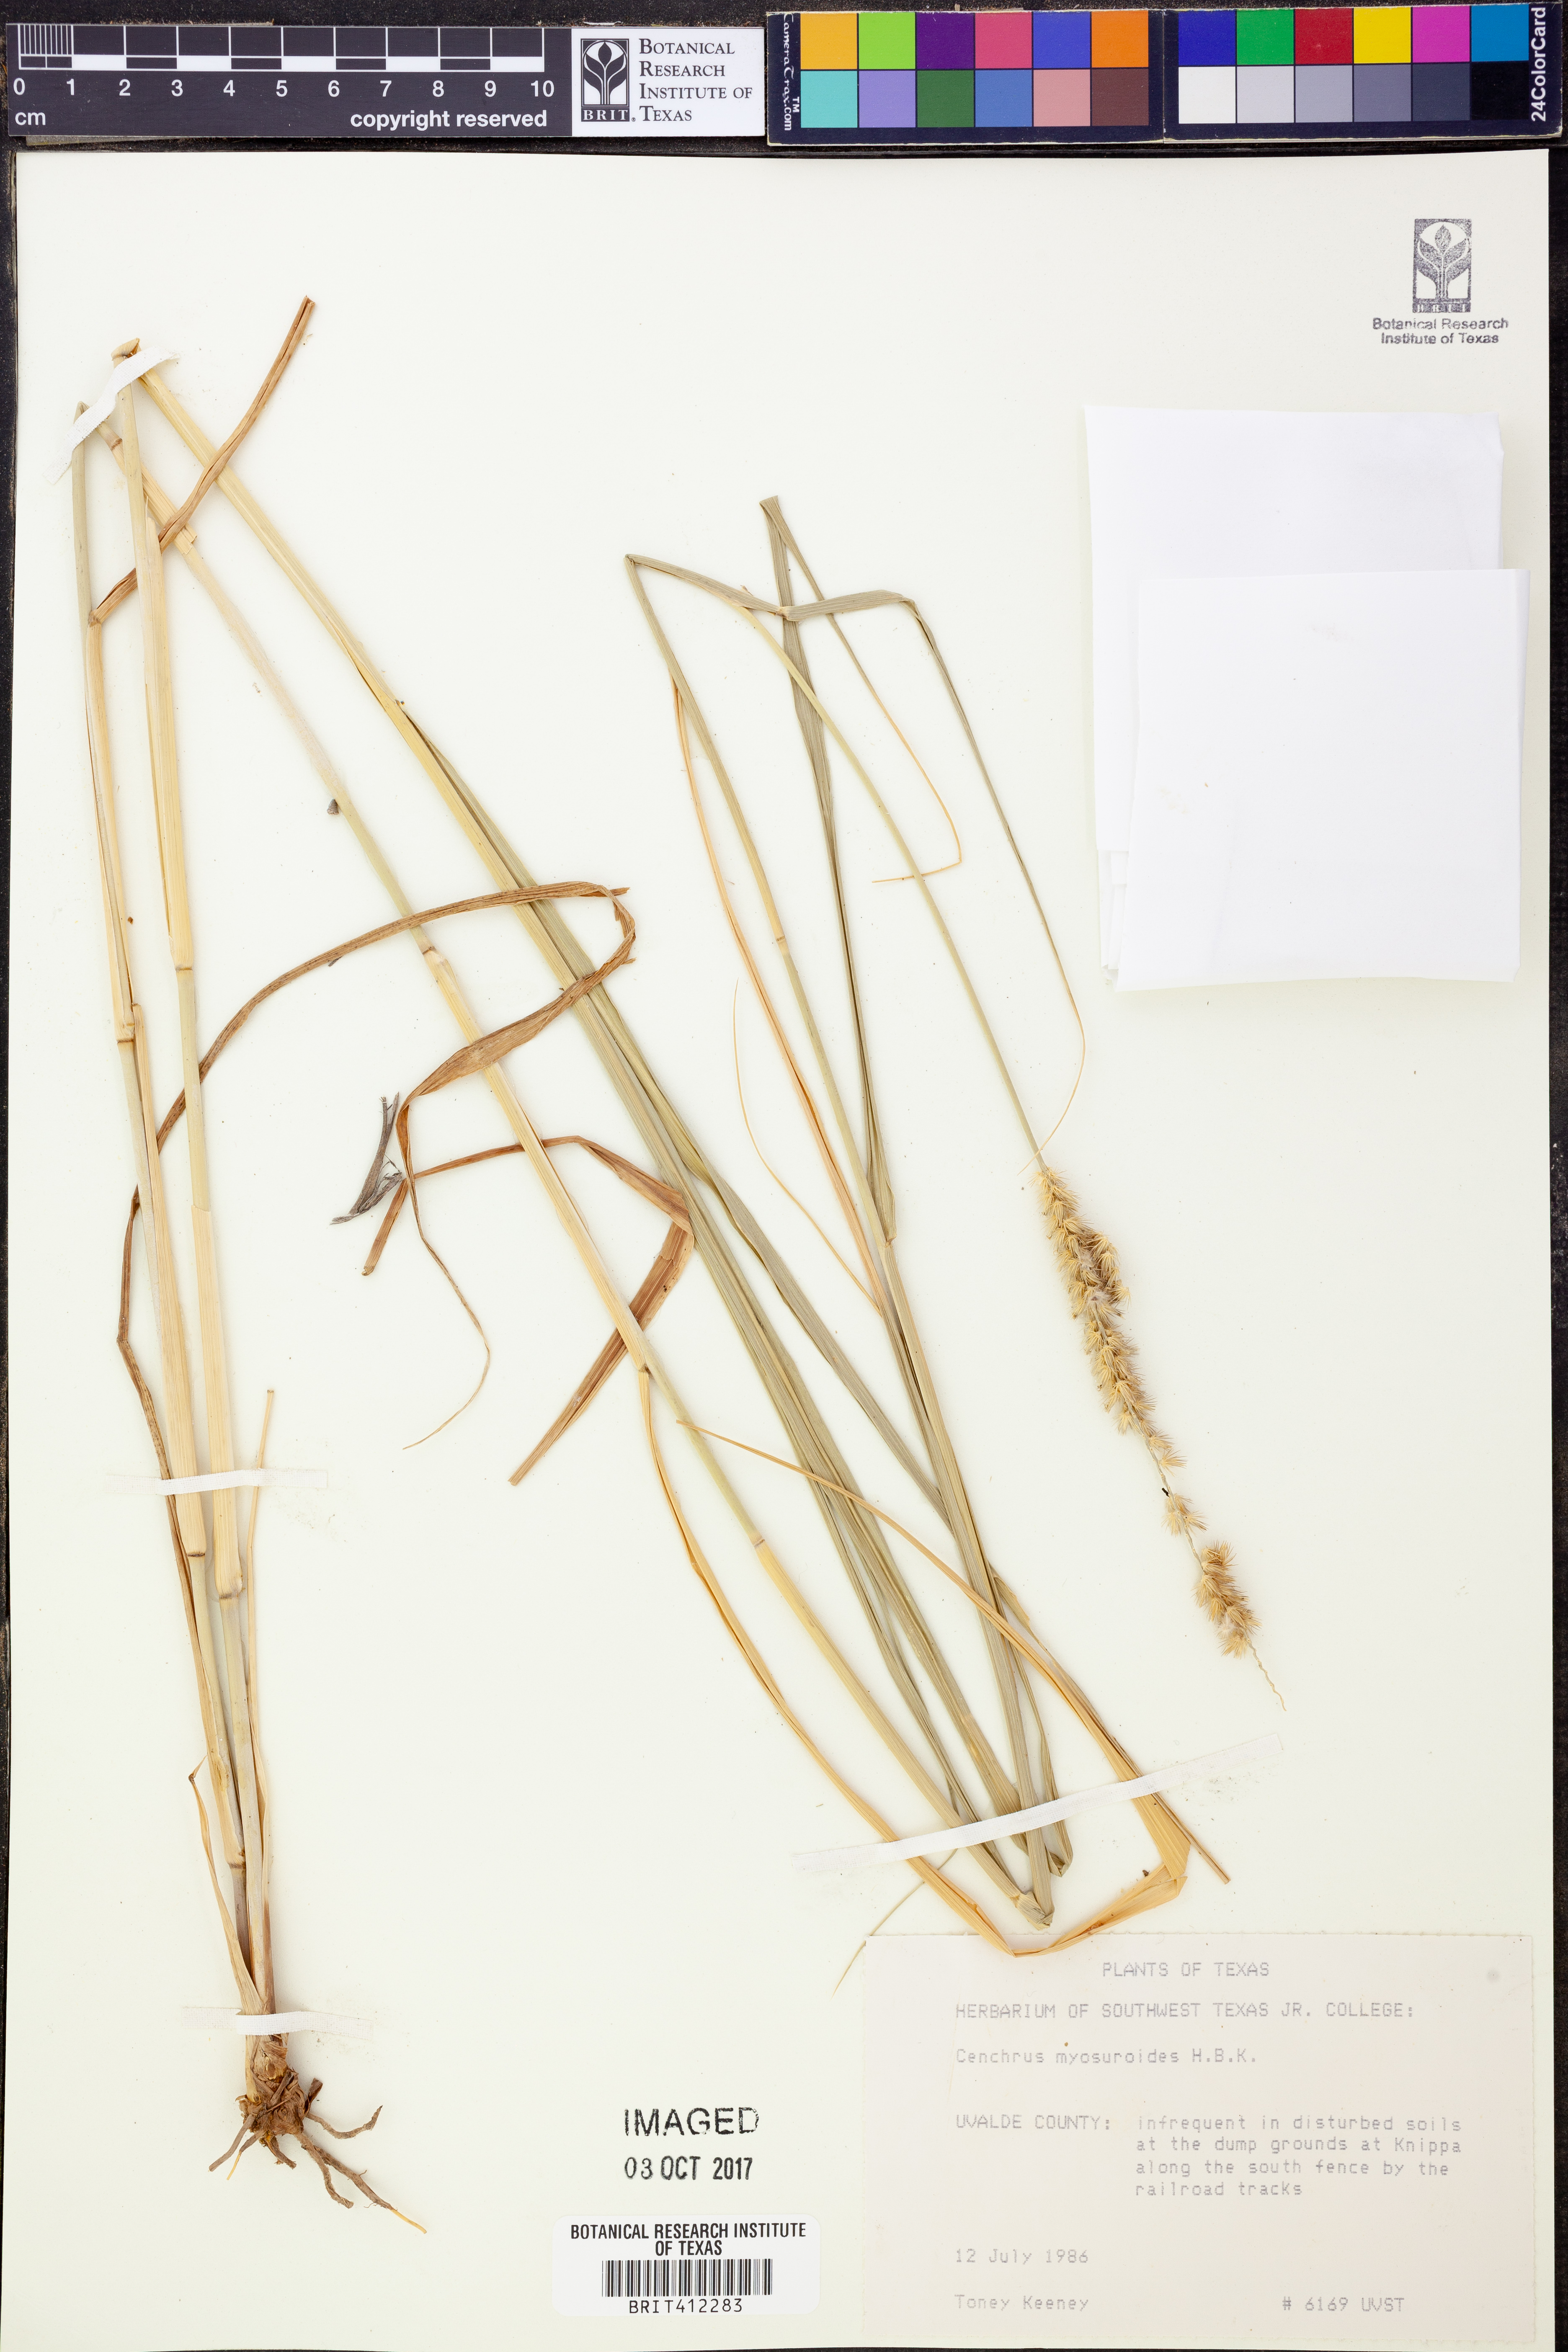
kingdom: Plantae
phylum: Tracheophyta
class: Liliopsida
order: Poales
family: Poaceae
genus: Cenchrus
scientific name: Cenchrus myosuroides
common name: Big sandbur
